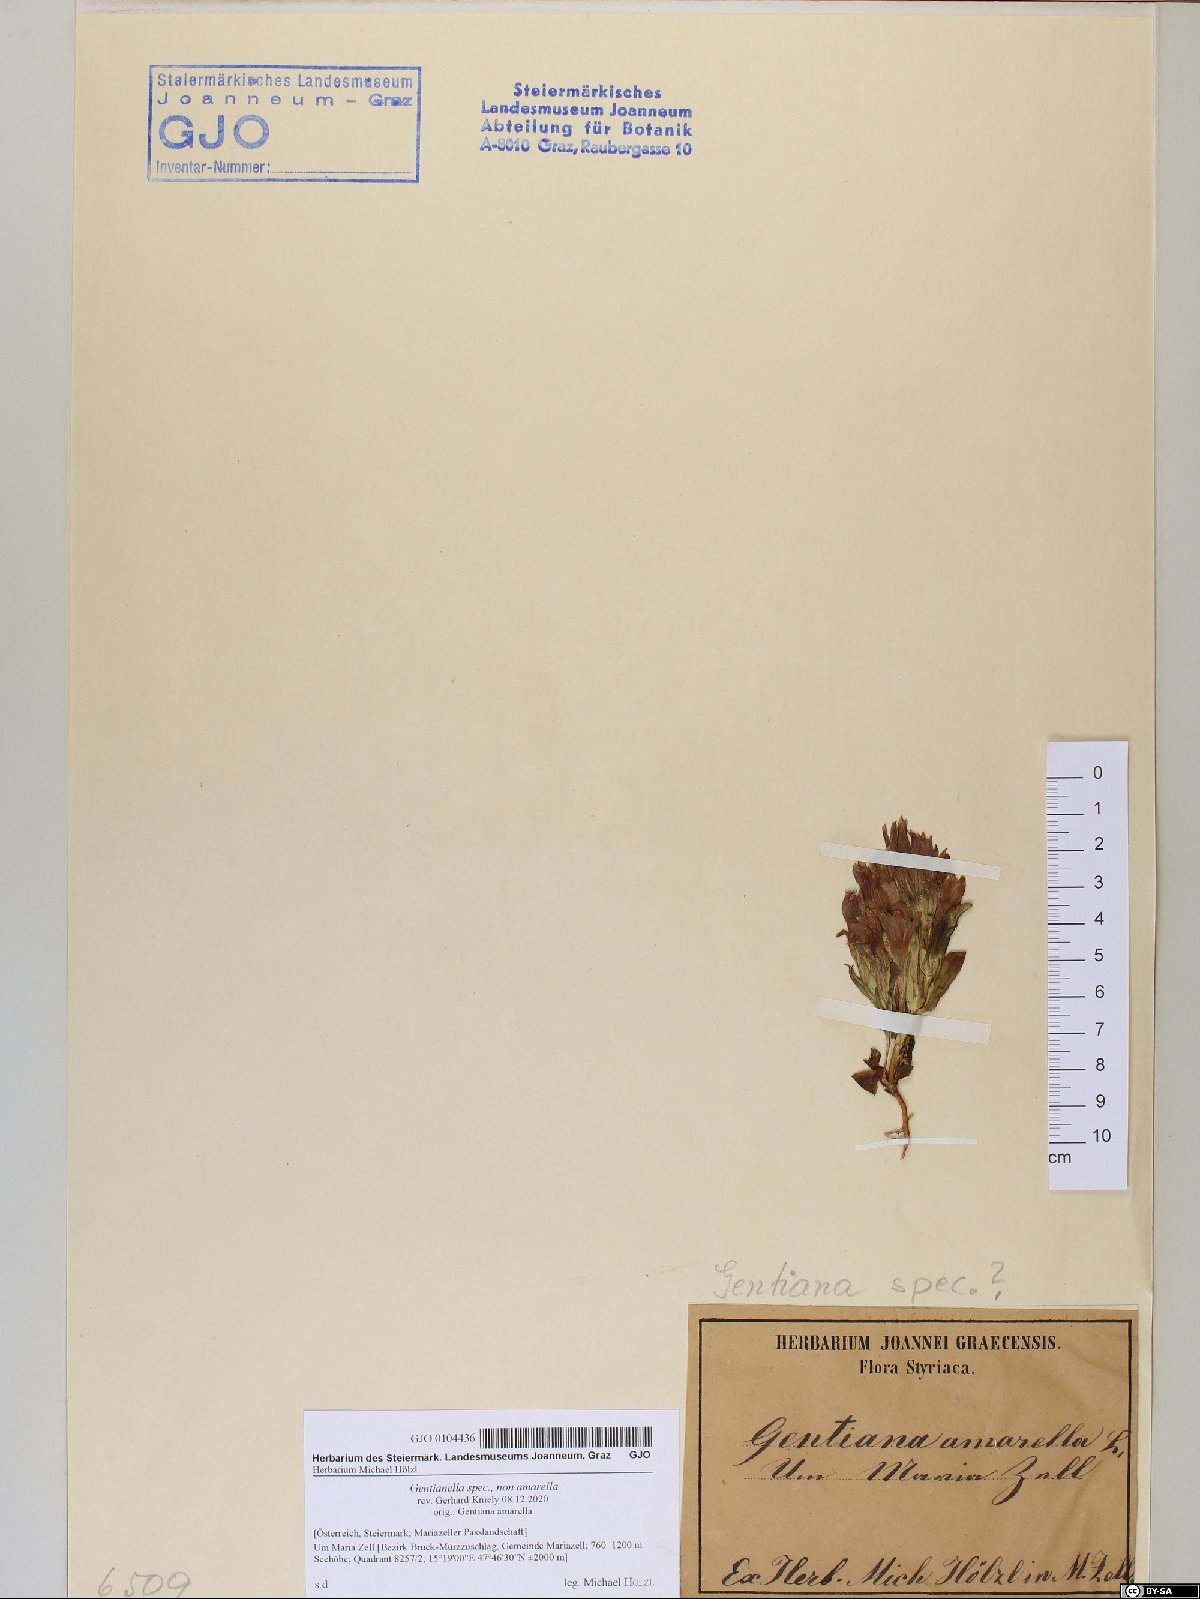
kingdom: Plantae
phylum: Tracheophyta
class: Magnoliopsida
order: Gentianales
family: Gentianaceae
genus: Gentianella
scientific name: Gentianella
